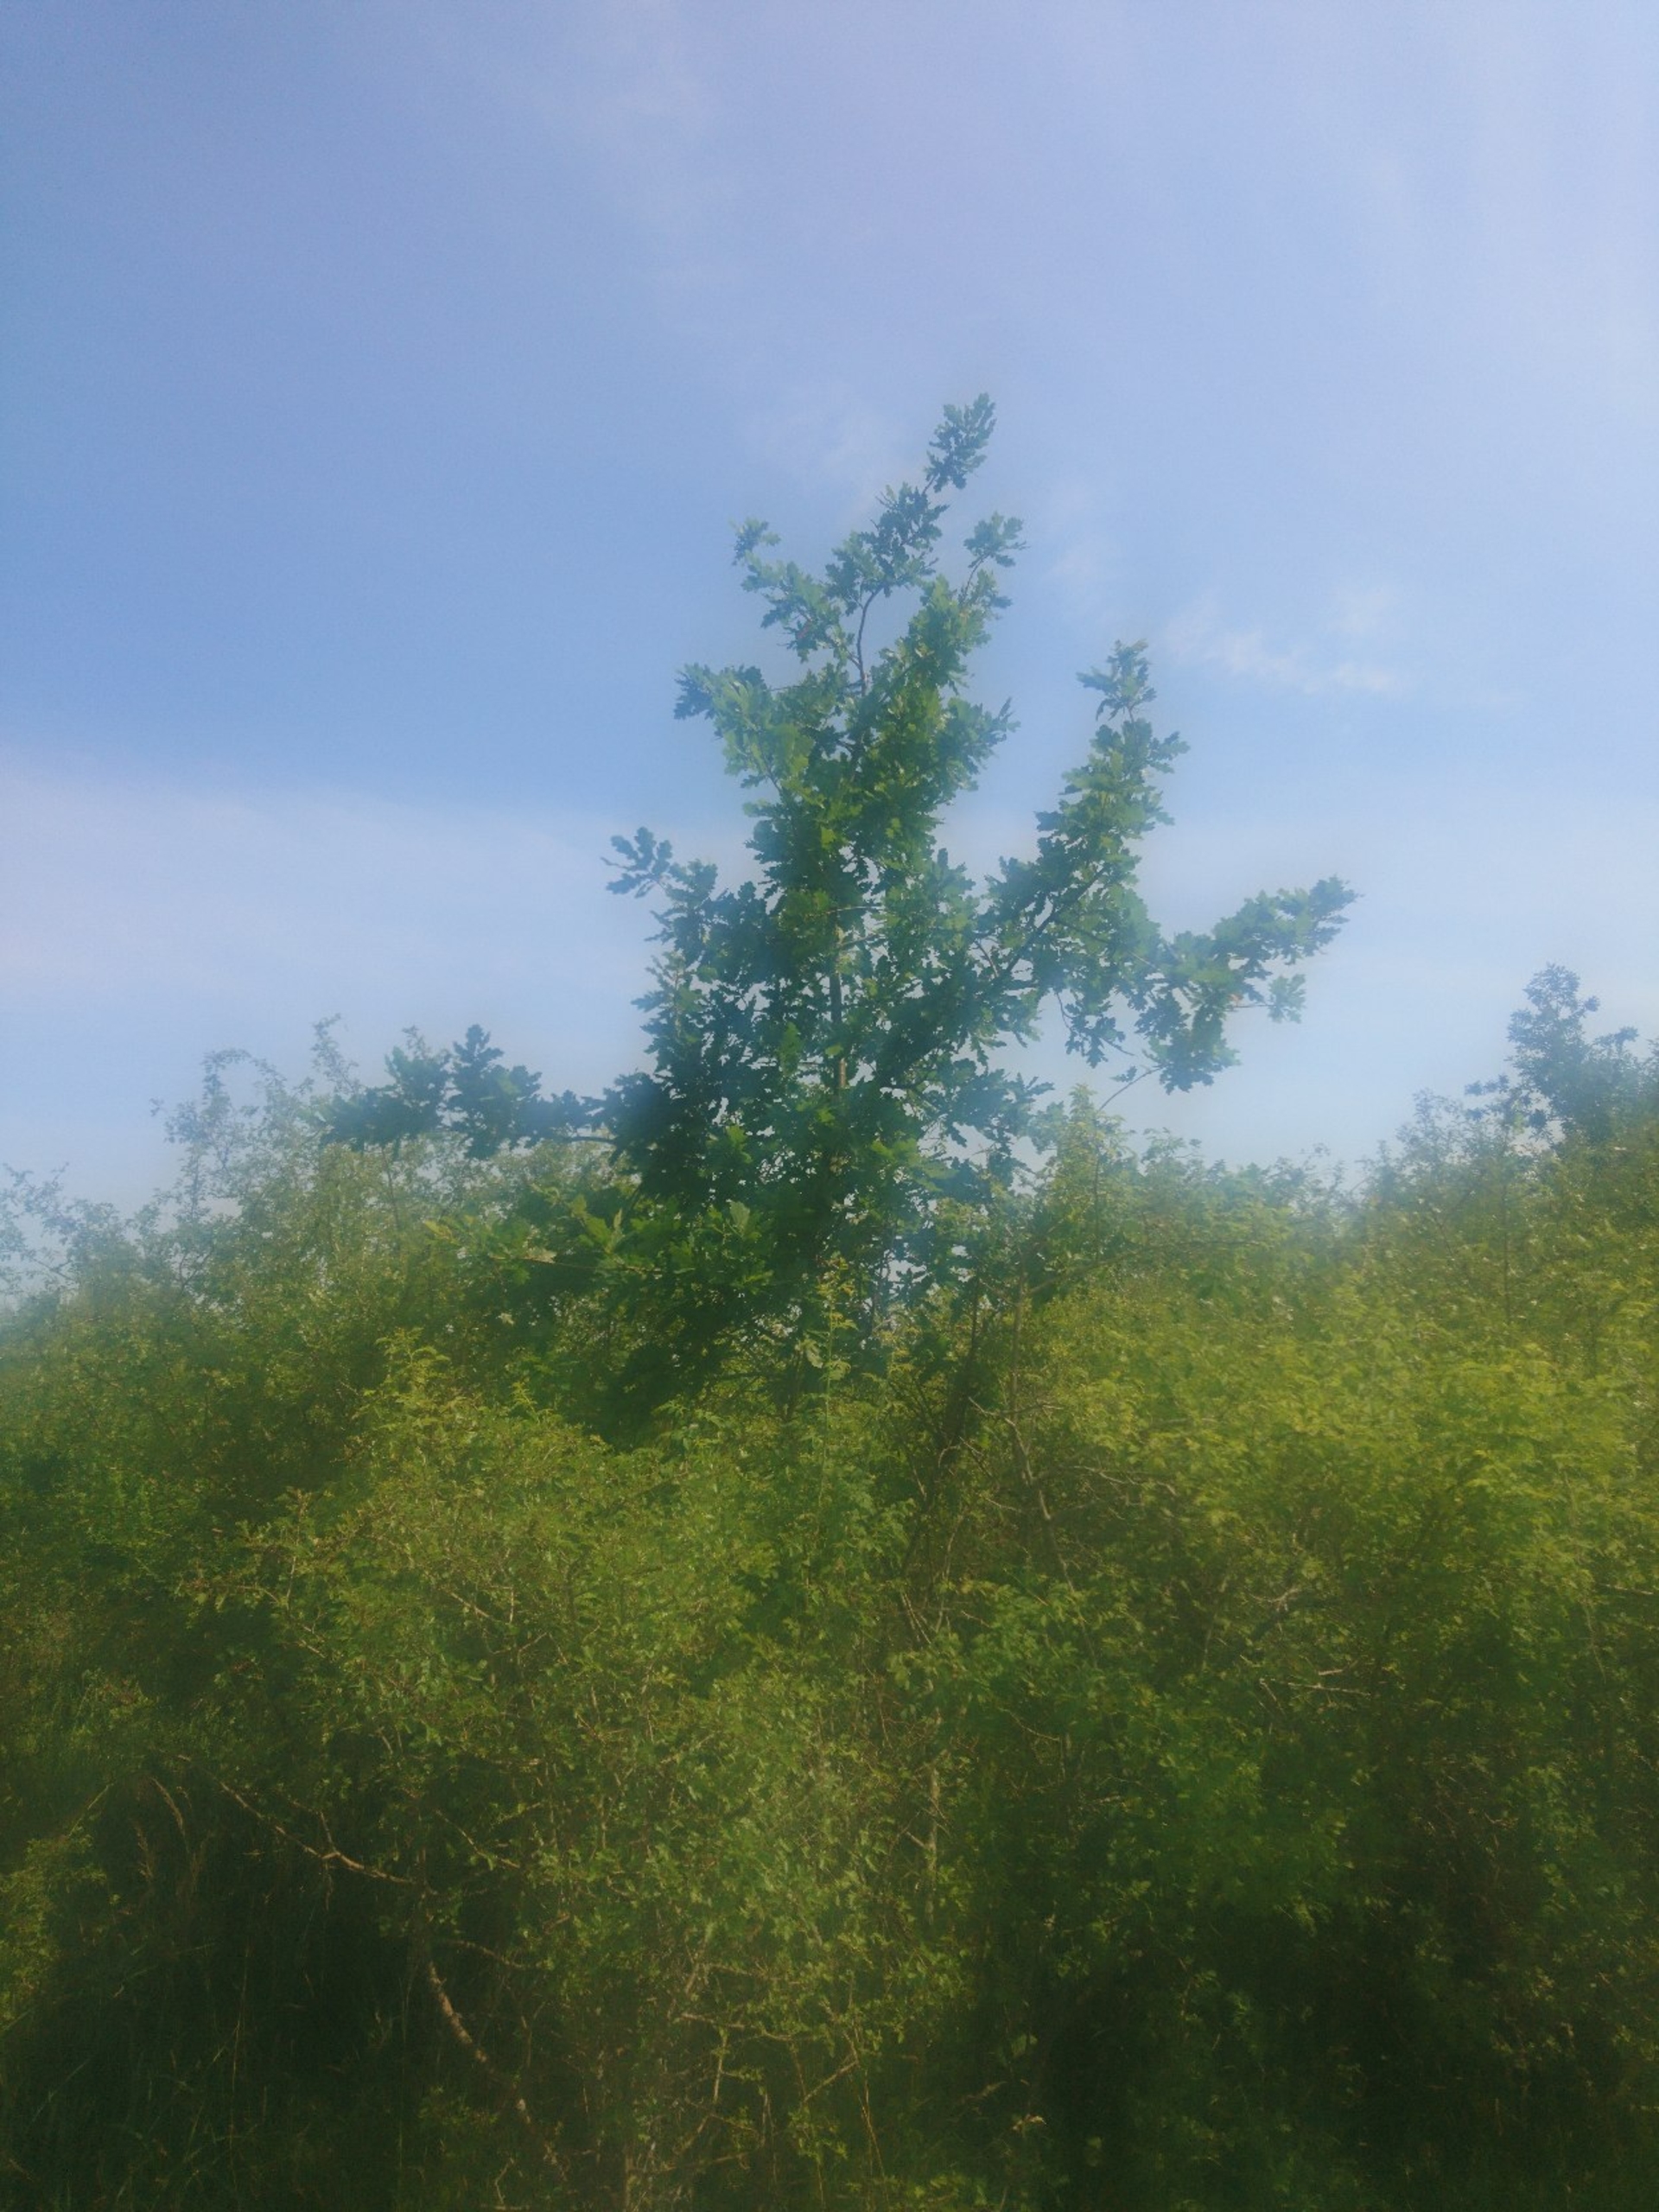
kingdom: Plantae
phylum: Tracheophyta
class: Magnoliopsida
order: Fagales
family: Fagaceae
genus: Quercus
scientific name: Quercus robur
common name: Stilk-eg/almindelig eg
